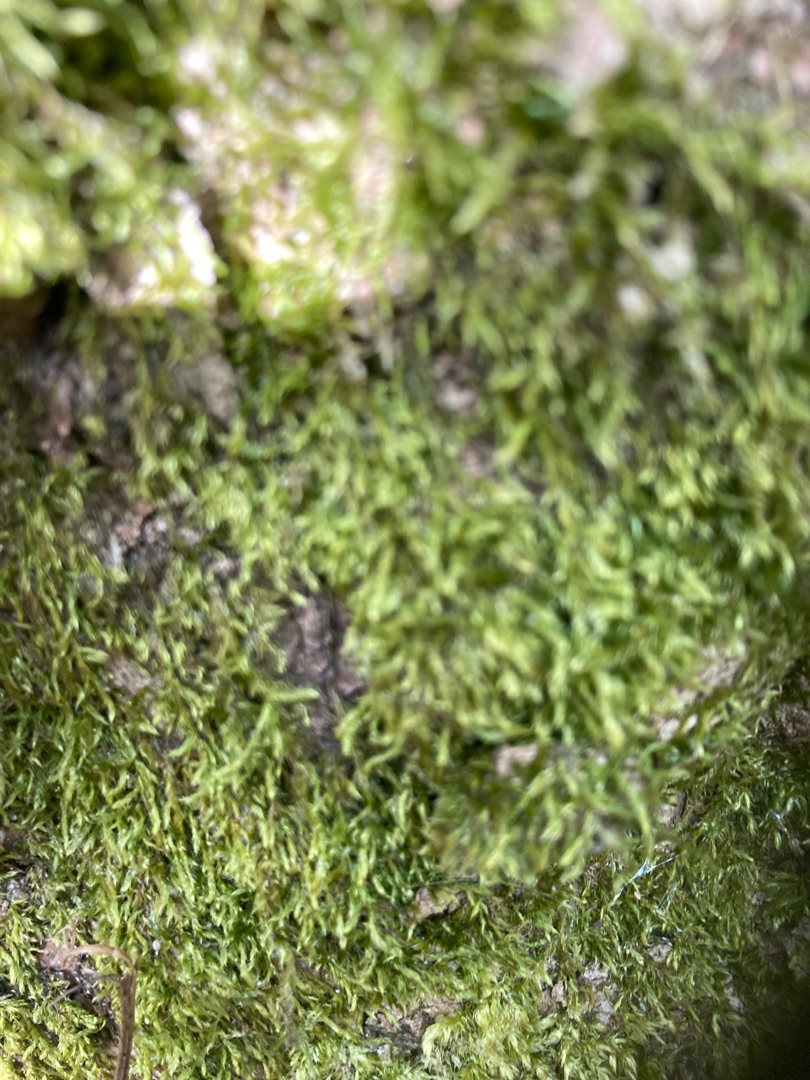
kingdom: Plantae
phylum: Bryophyta
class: Bryopsida
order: Hypnales
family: Hypnaceae
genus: Hypnum
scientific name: Hypnum
